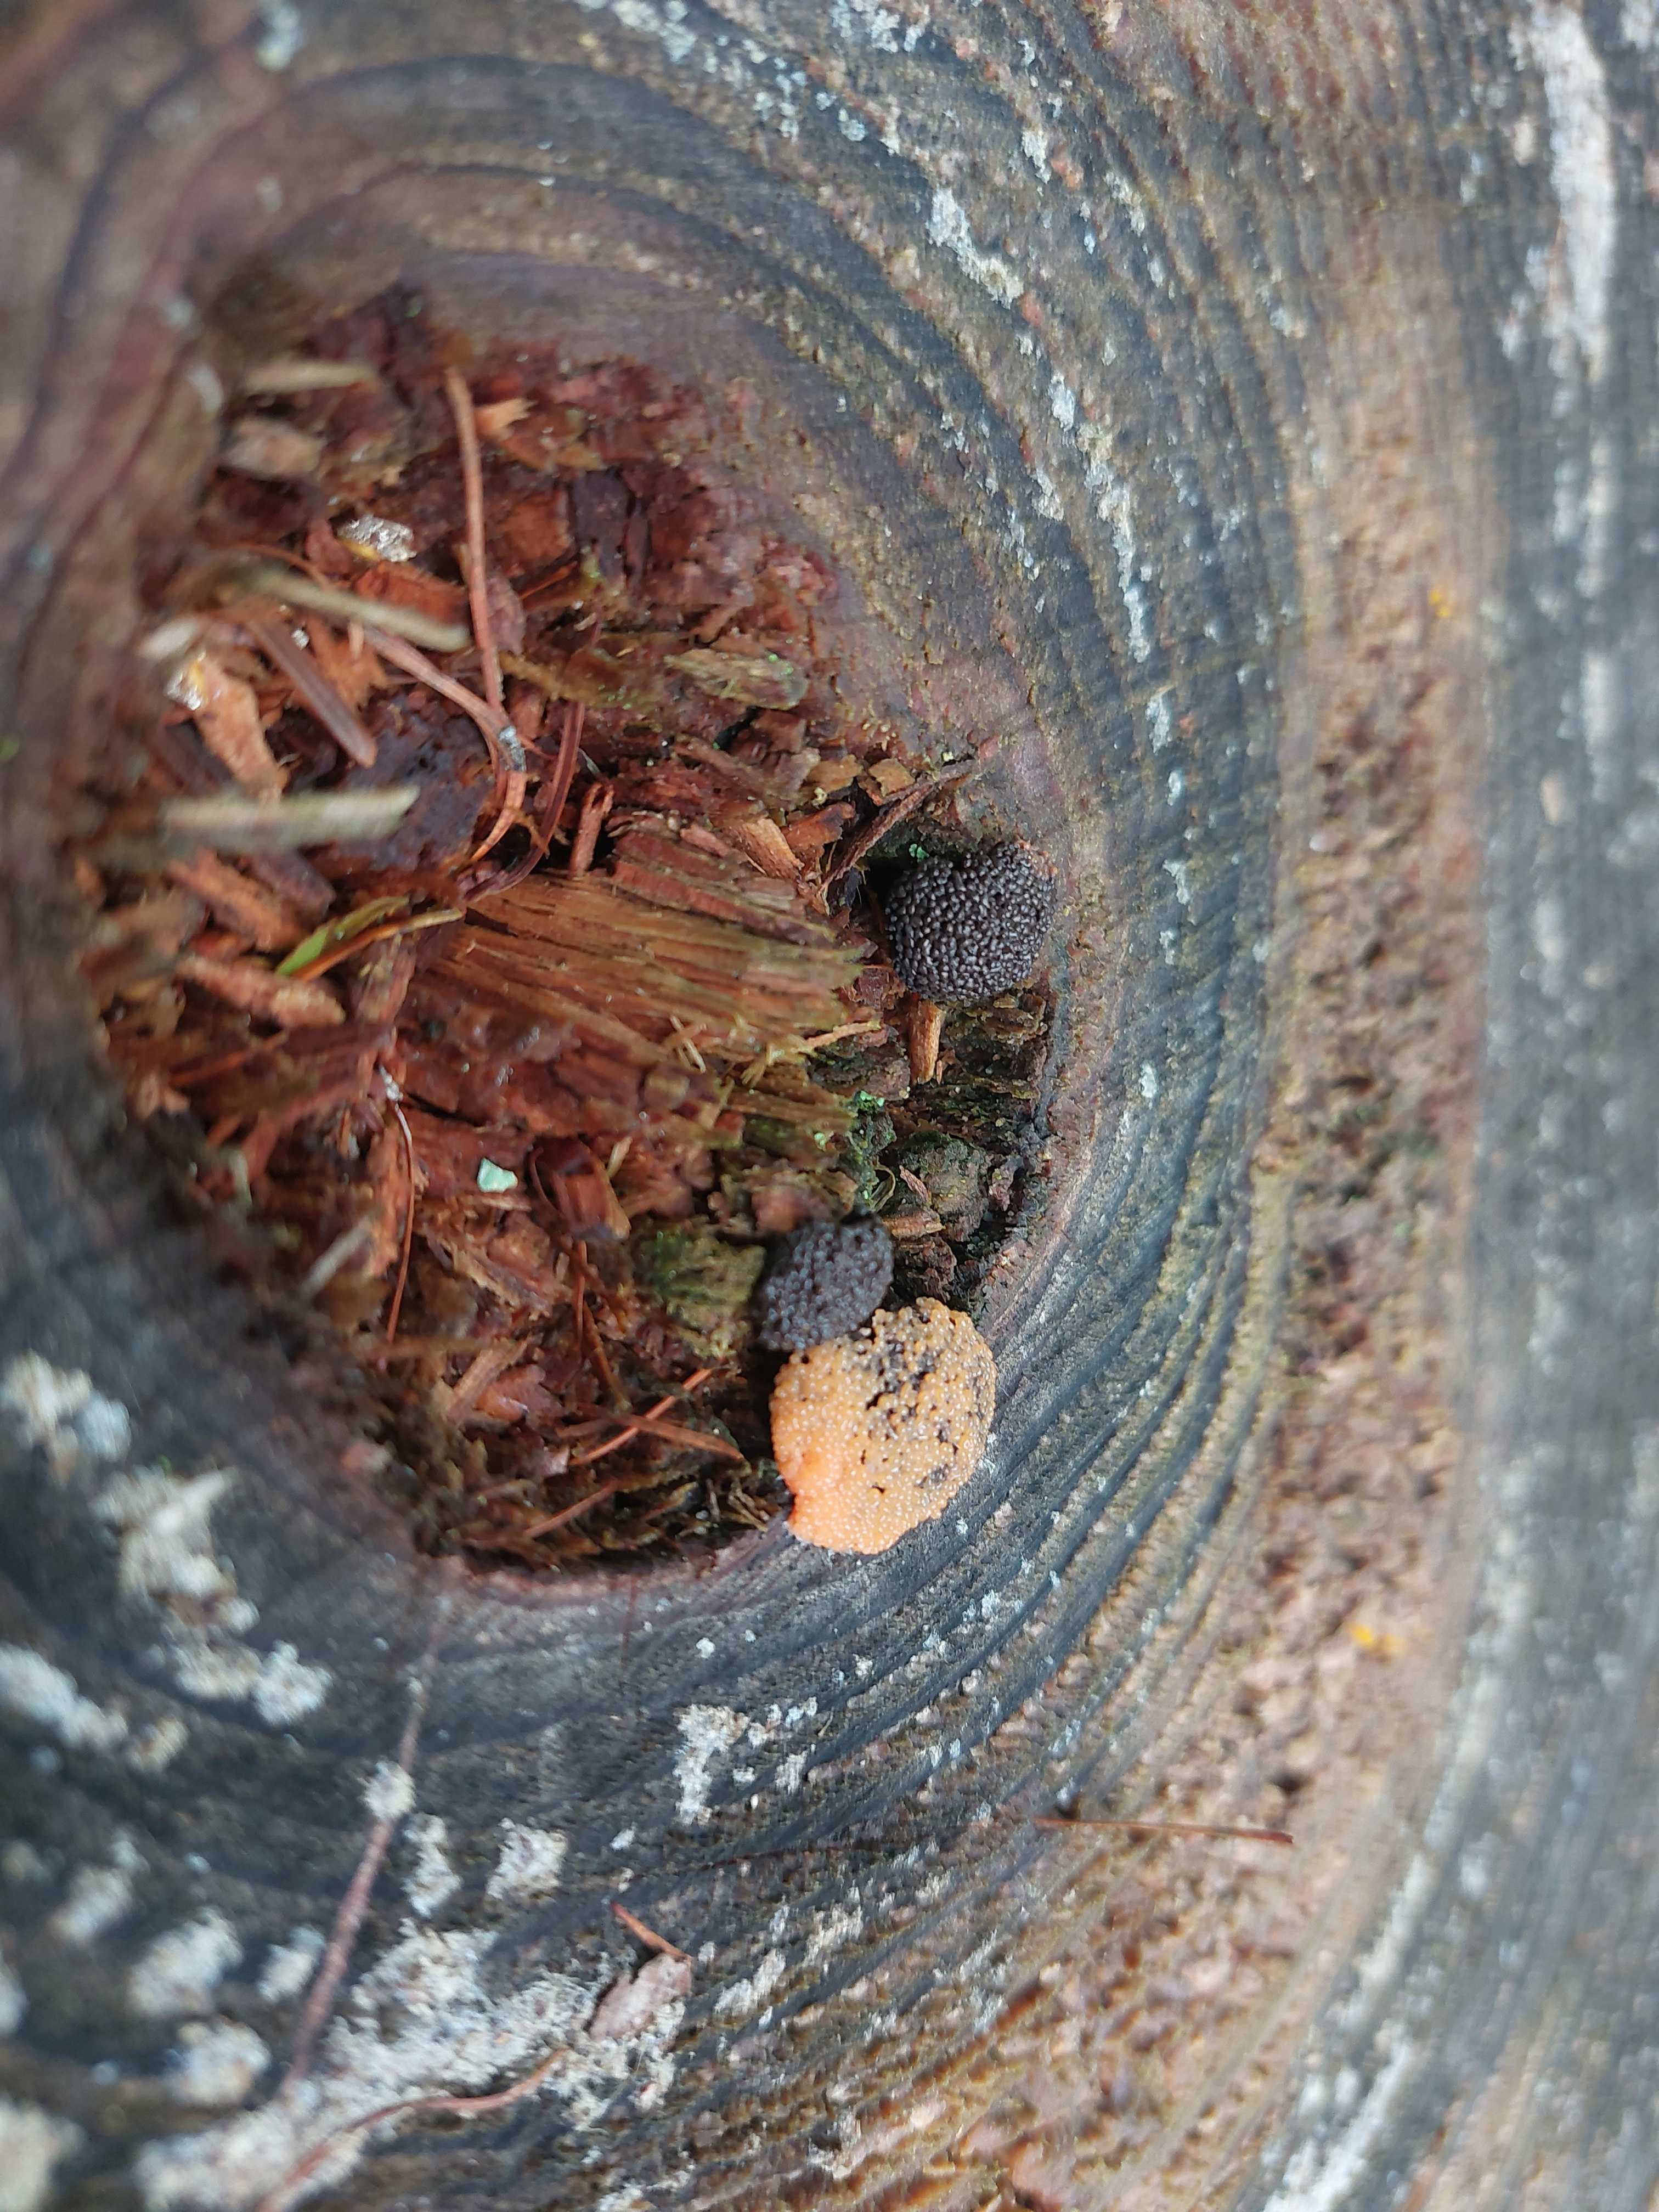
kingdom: Protozoa
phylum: Mycetozoa
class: Myxomycetes
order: Cribrariales
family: Tubiferaceae
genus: Tubifera
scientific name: Tubifera
